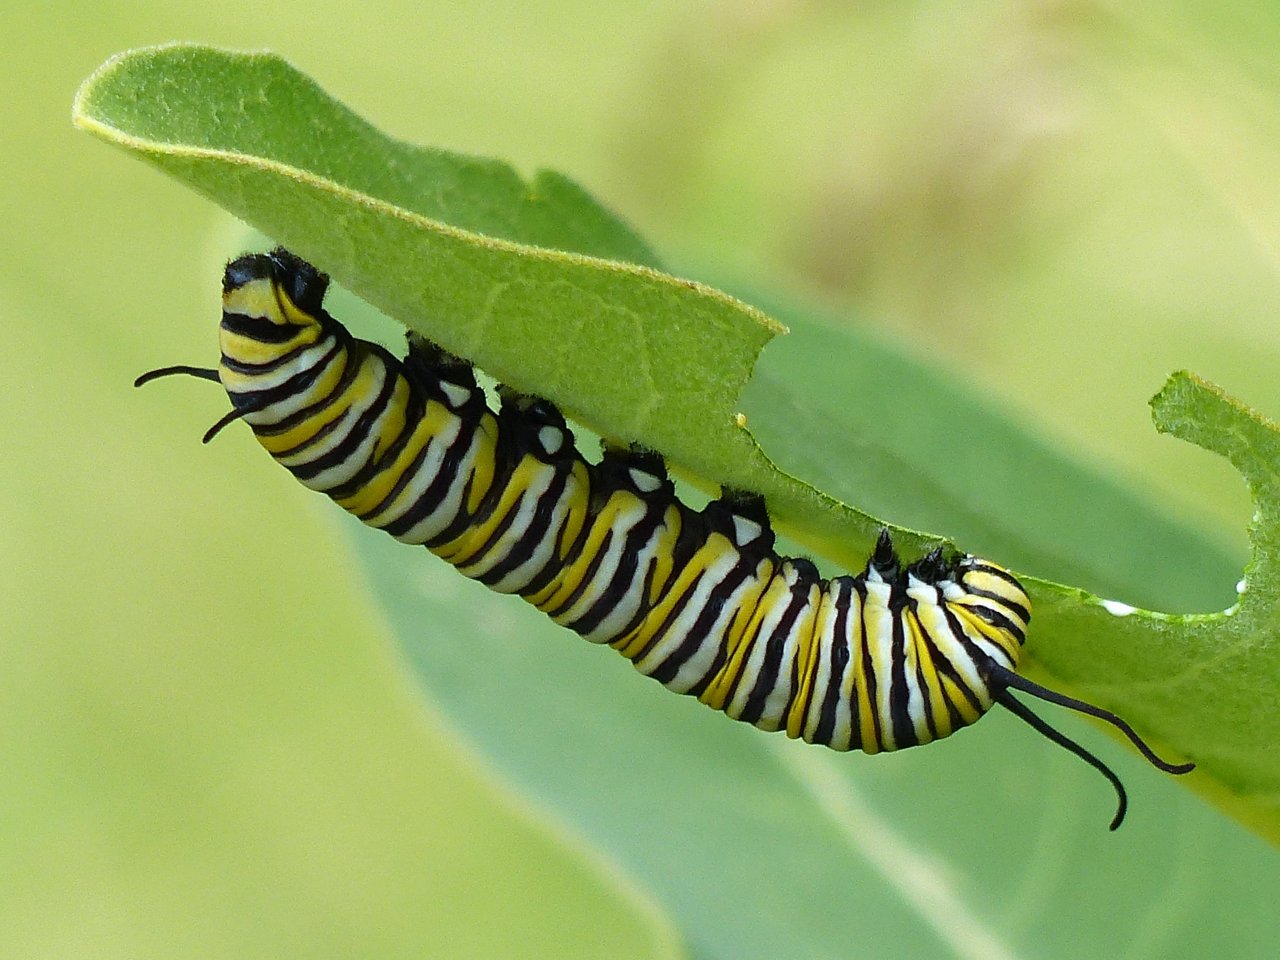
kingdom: Animalia
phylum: Arthropoda
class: Insecta
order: Lepidoptera
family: Nymphalidae
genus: Danaus
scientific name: Danaus plexippus
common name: Monarch
